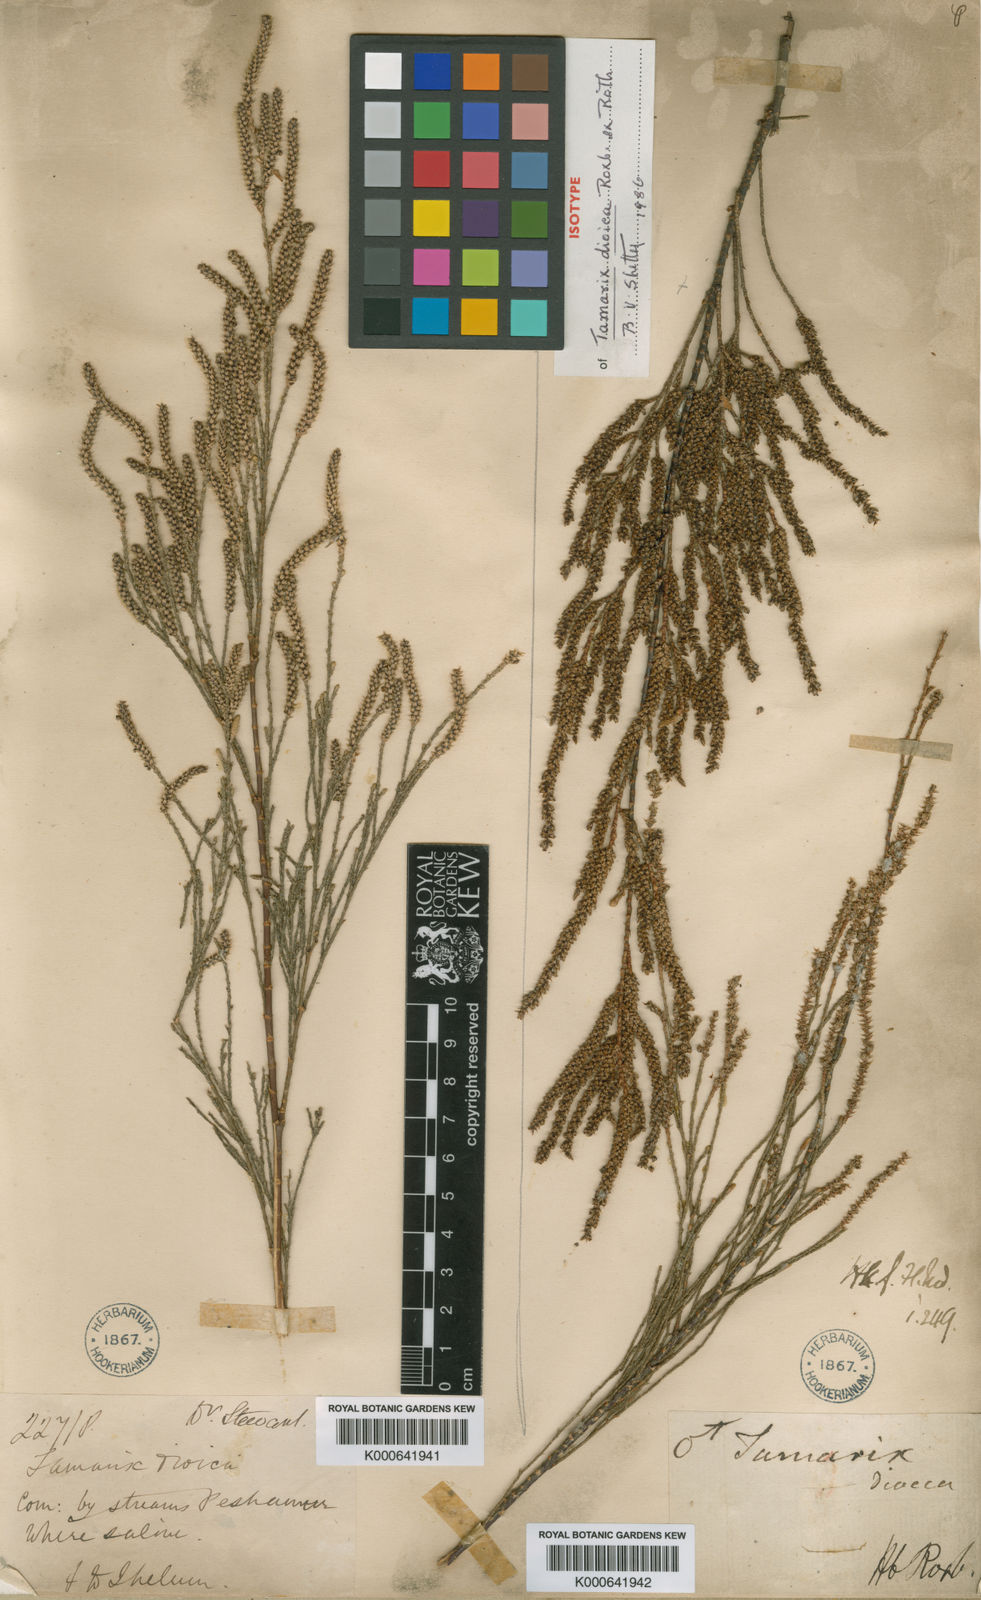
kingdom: Plantae
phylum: Tracheophyta
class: Magnoliopsida
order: Caryophyllales
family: Tamaricaceae
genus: Tamarix
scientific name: Tamarix dioica
